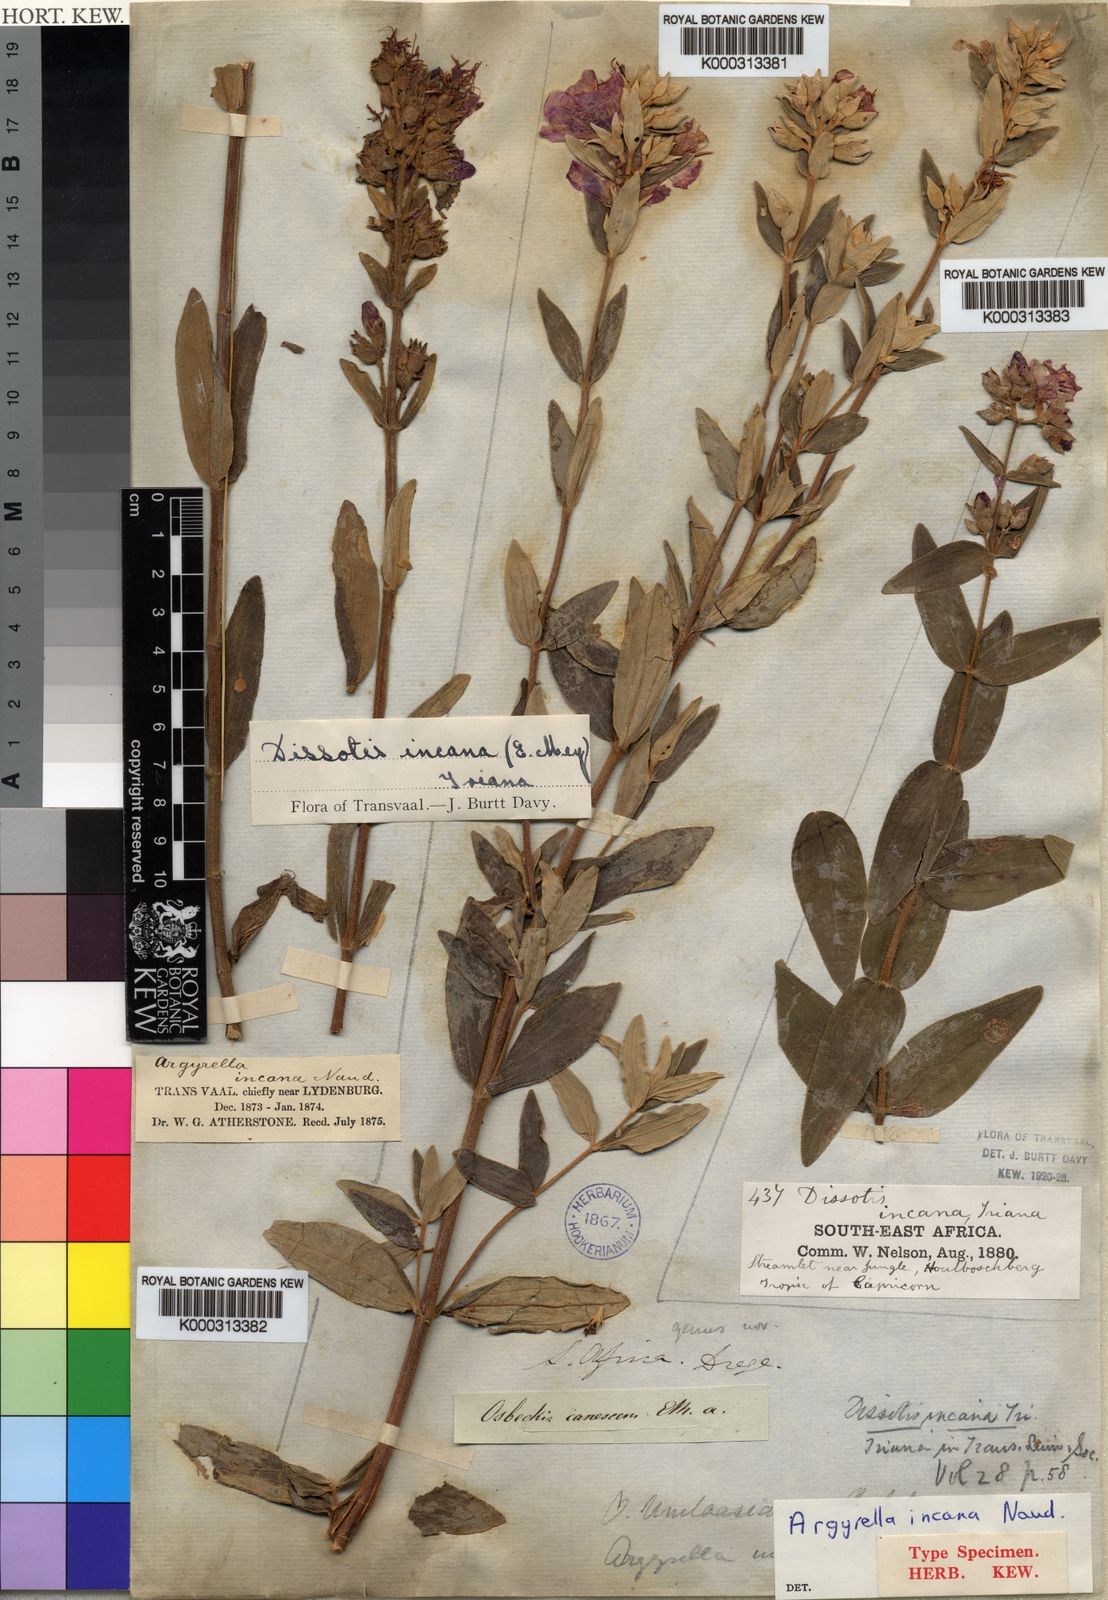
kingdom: Plantae
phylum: Tracheophyta
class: Magnoliopsida
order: Myrtales
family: Melastomataceae
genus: Heterotis
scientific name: Heterotis
